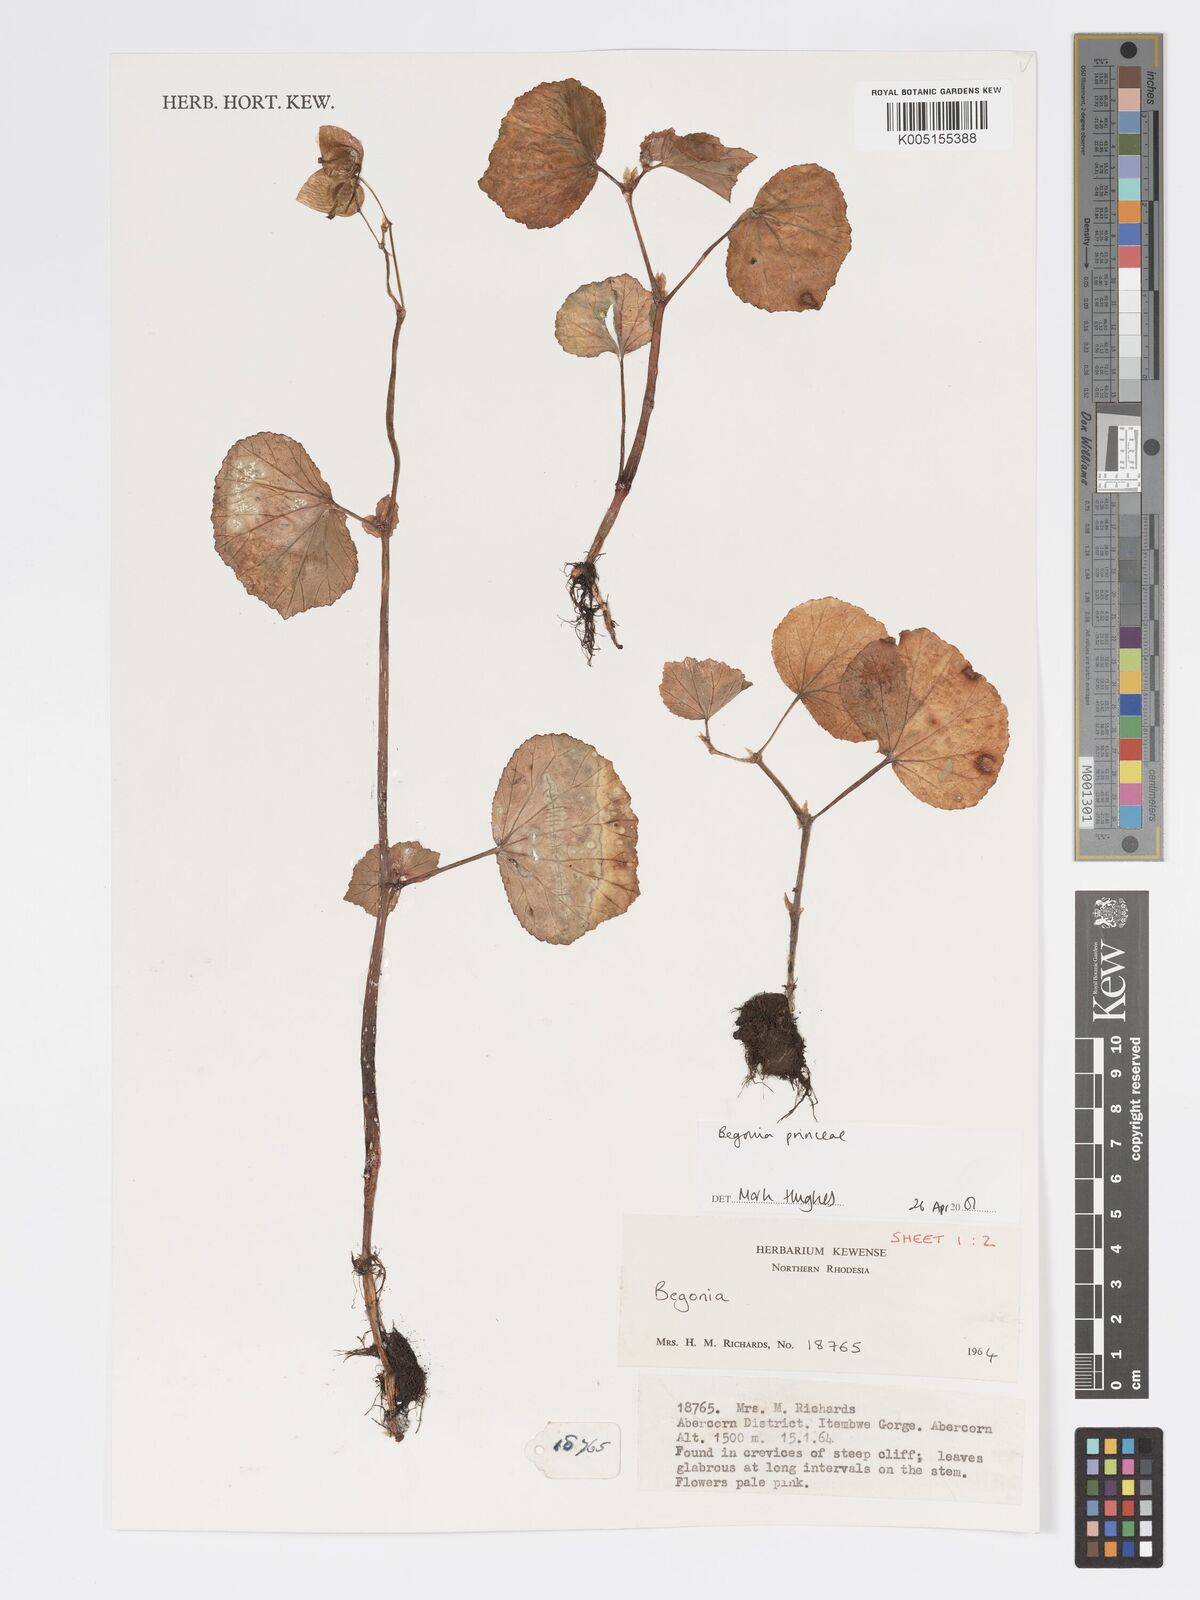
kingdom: Plantae
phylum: Tracheophyta
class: Magnoliopsida
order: Cucurbitales
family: Begoniaceae
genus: Begonia
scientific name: Begonia
